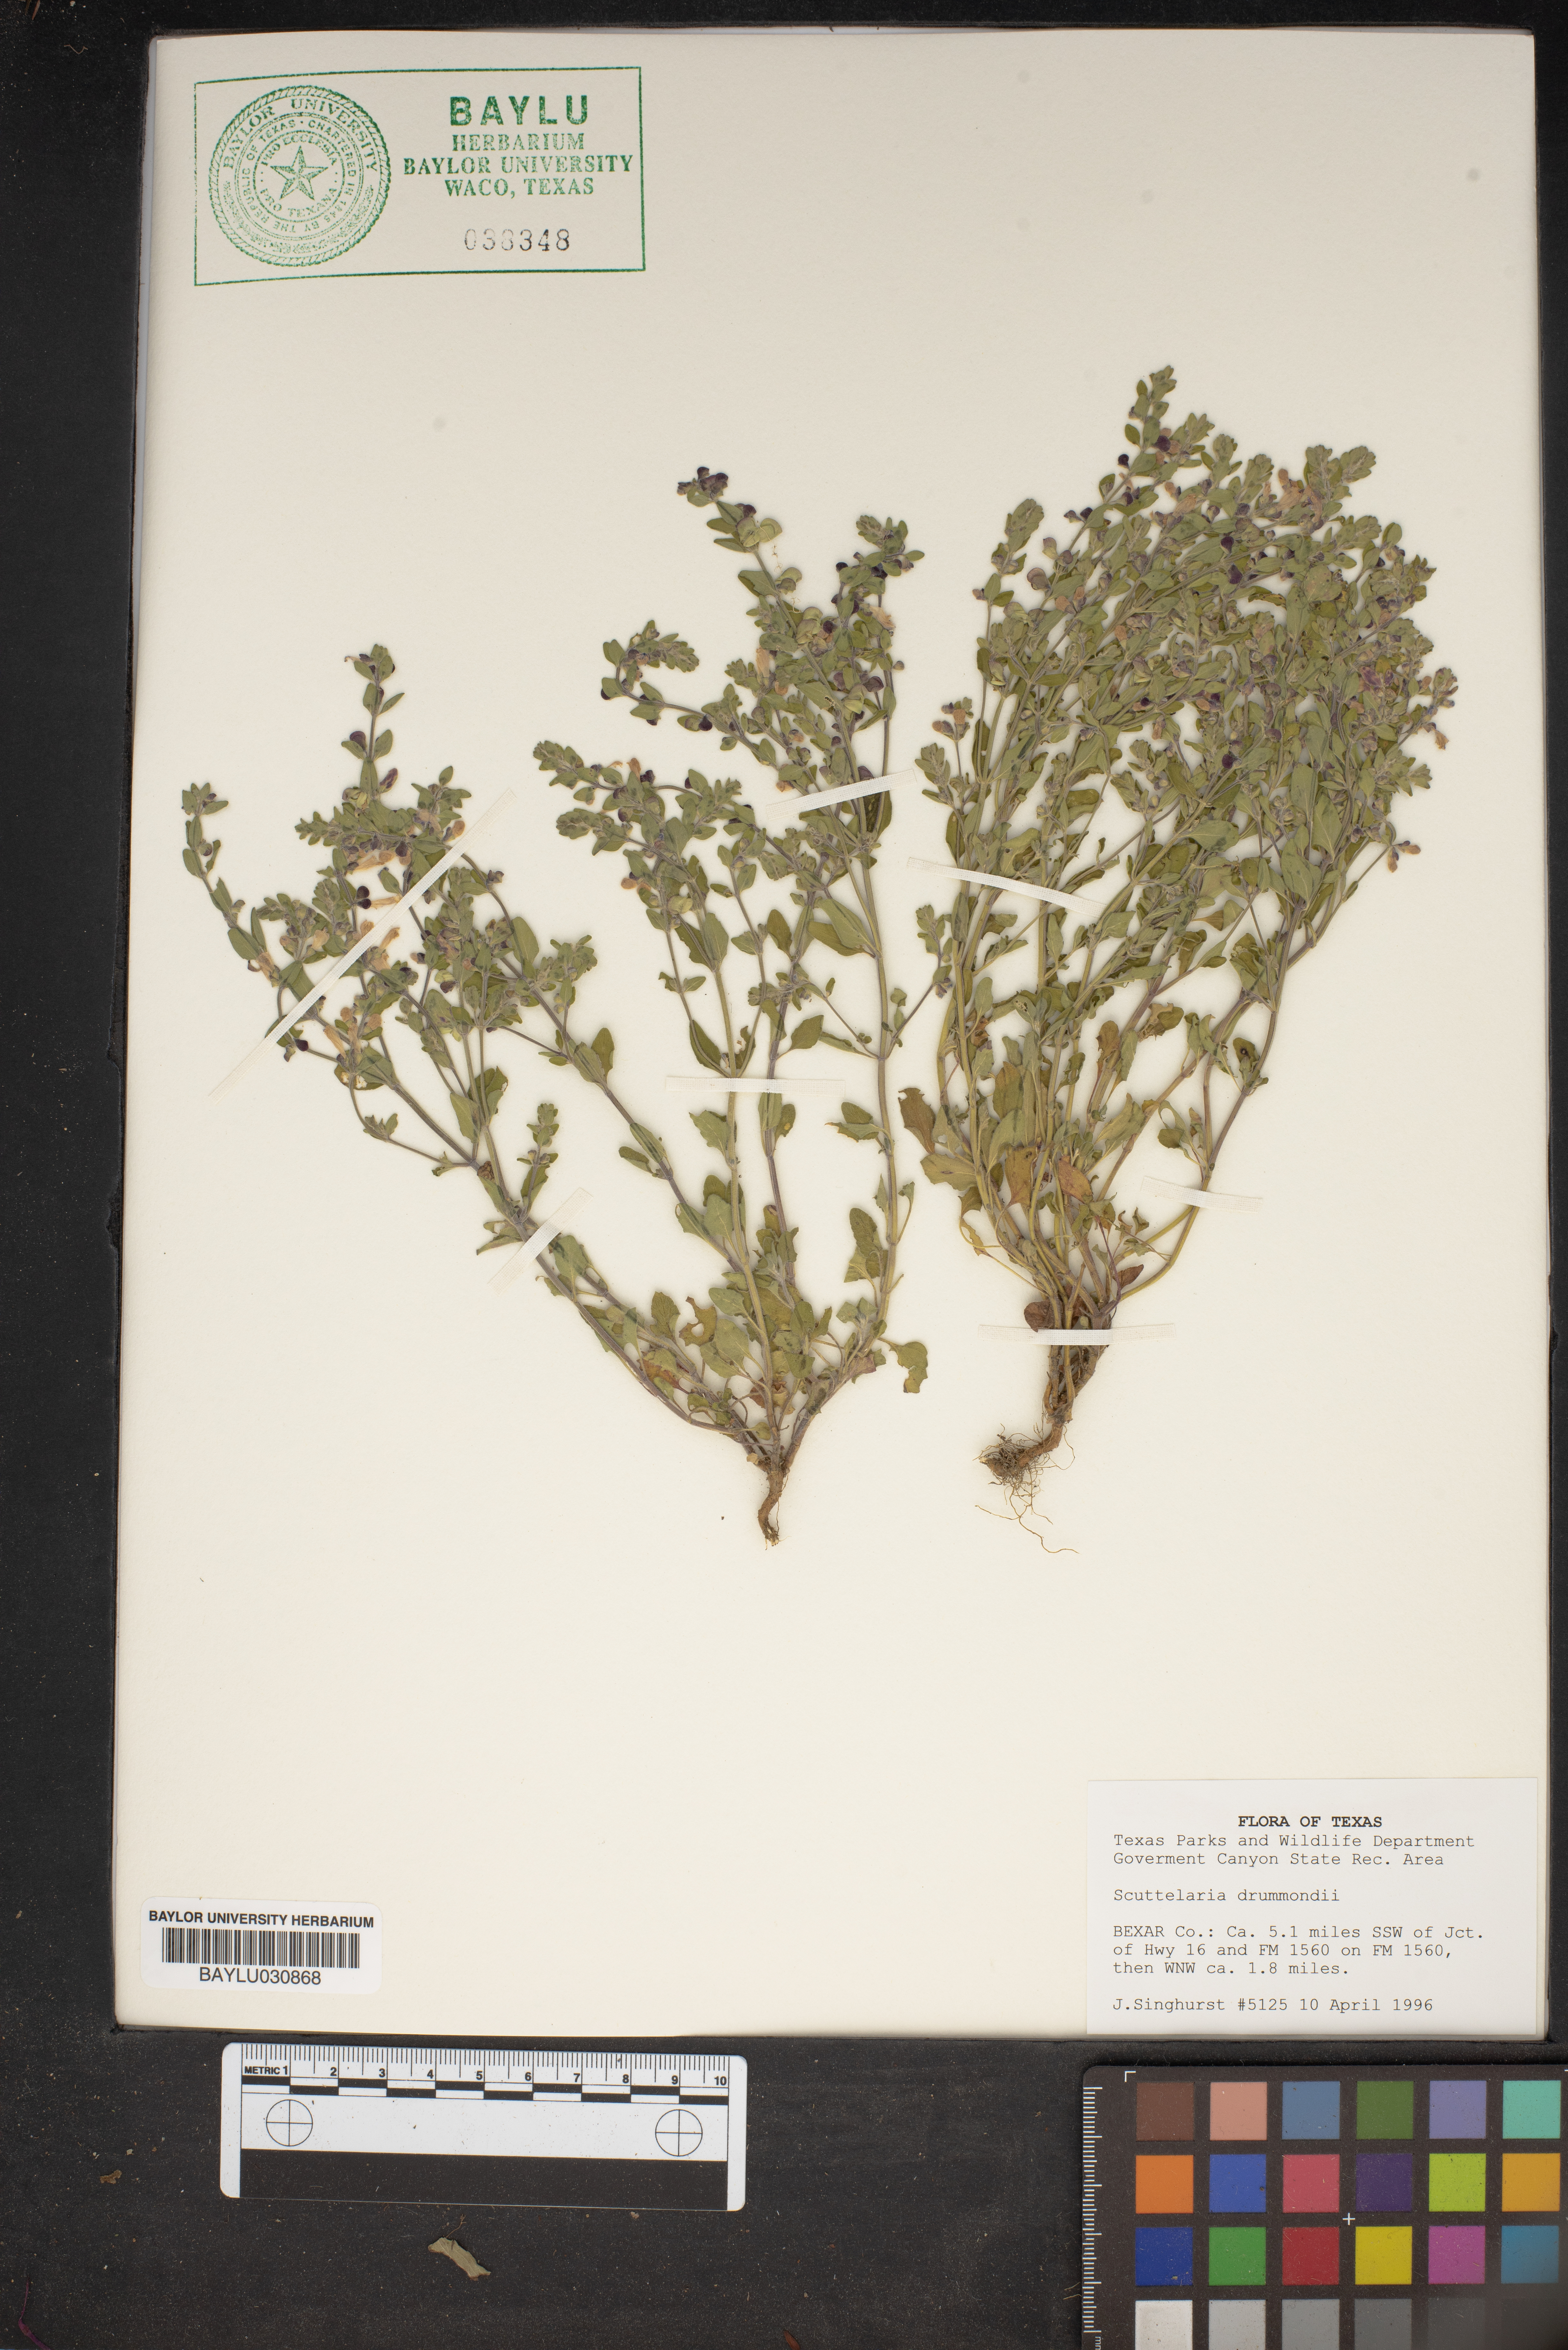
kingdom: Plantae
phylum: Tracheophyta
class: Magnoliopsida
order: Lamiales
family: Lamiaceae
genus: Scutellaria
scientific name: Scutellaria drummondii
